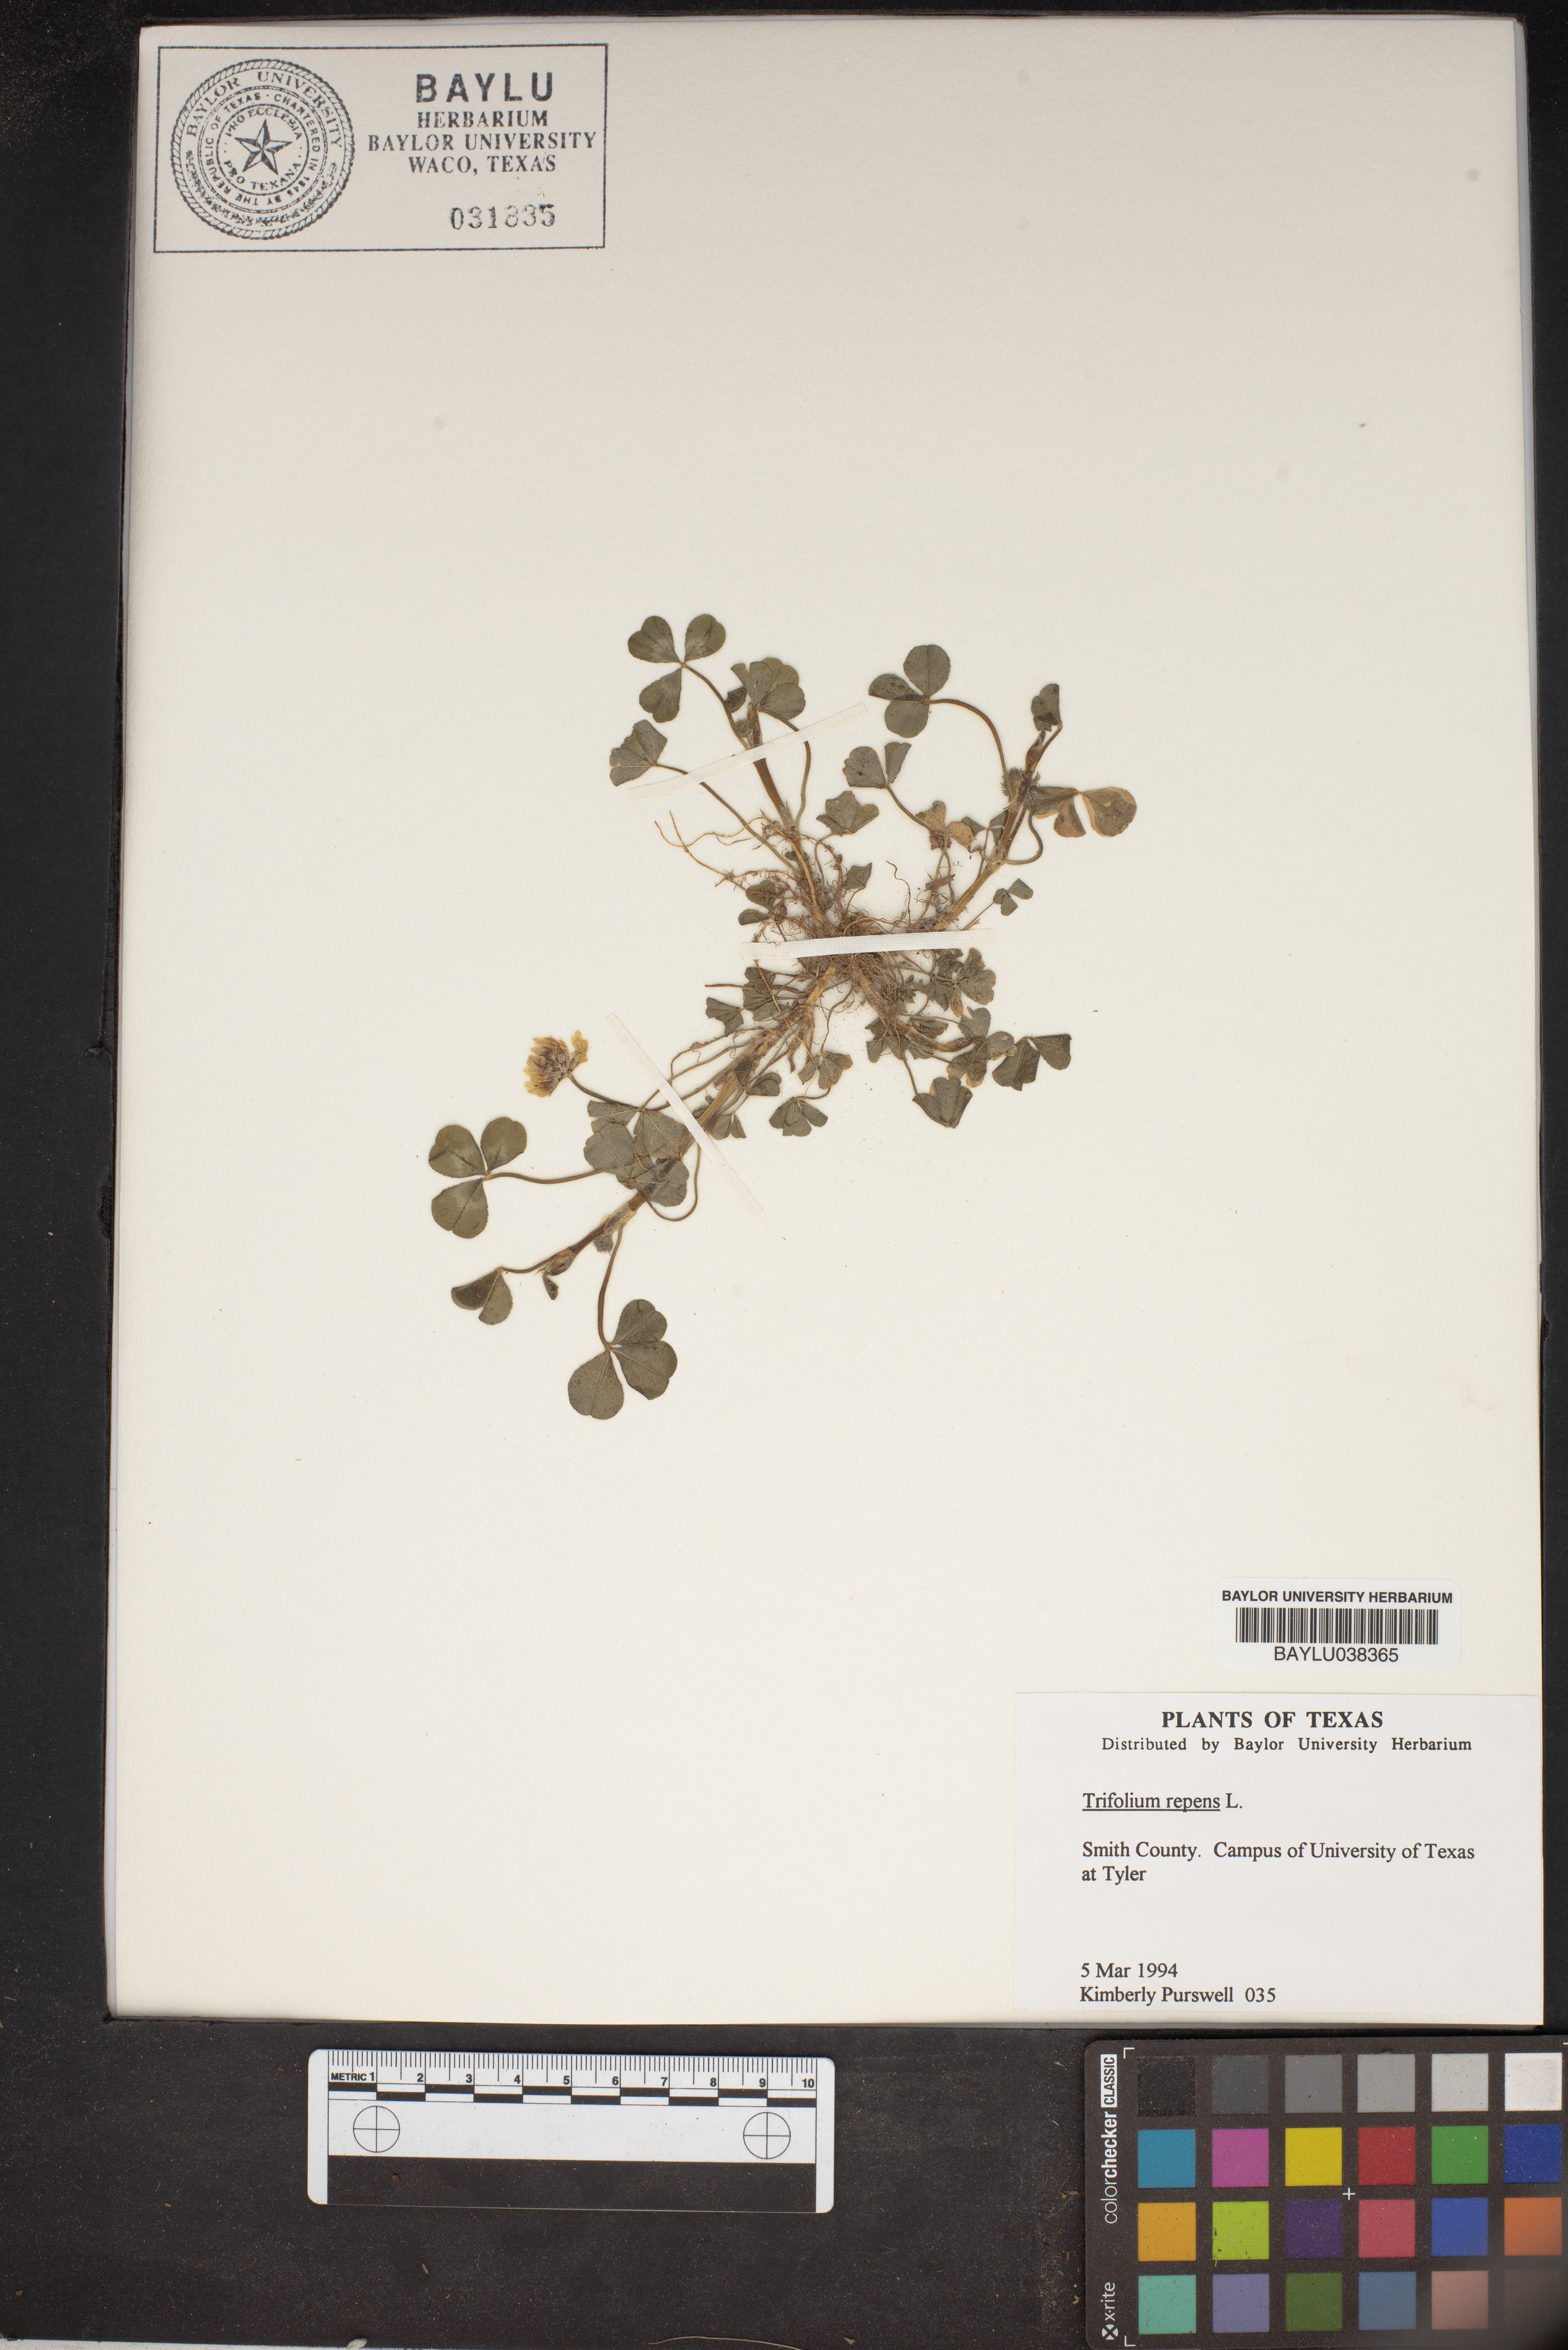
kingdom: Plantae
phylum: Tracheophyta
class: Magnoliopsida
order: Fabales
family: Fabaceae
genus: Trifolium
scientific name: Trifolium repens
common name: White clover
